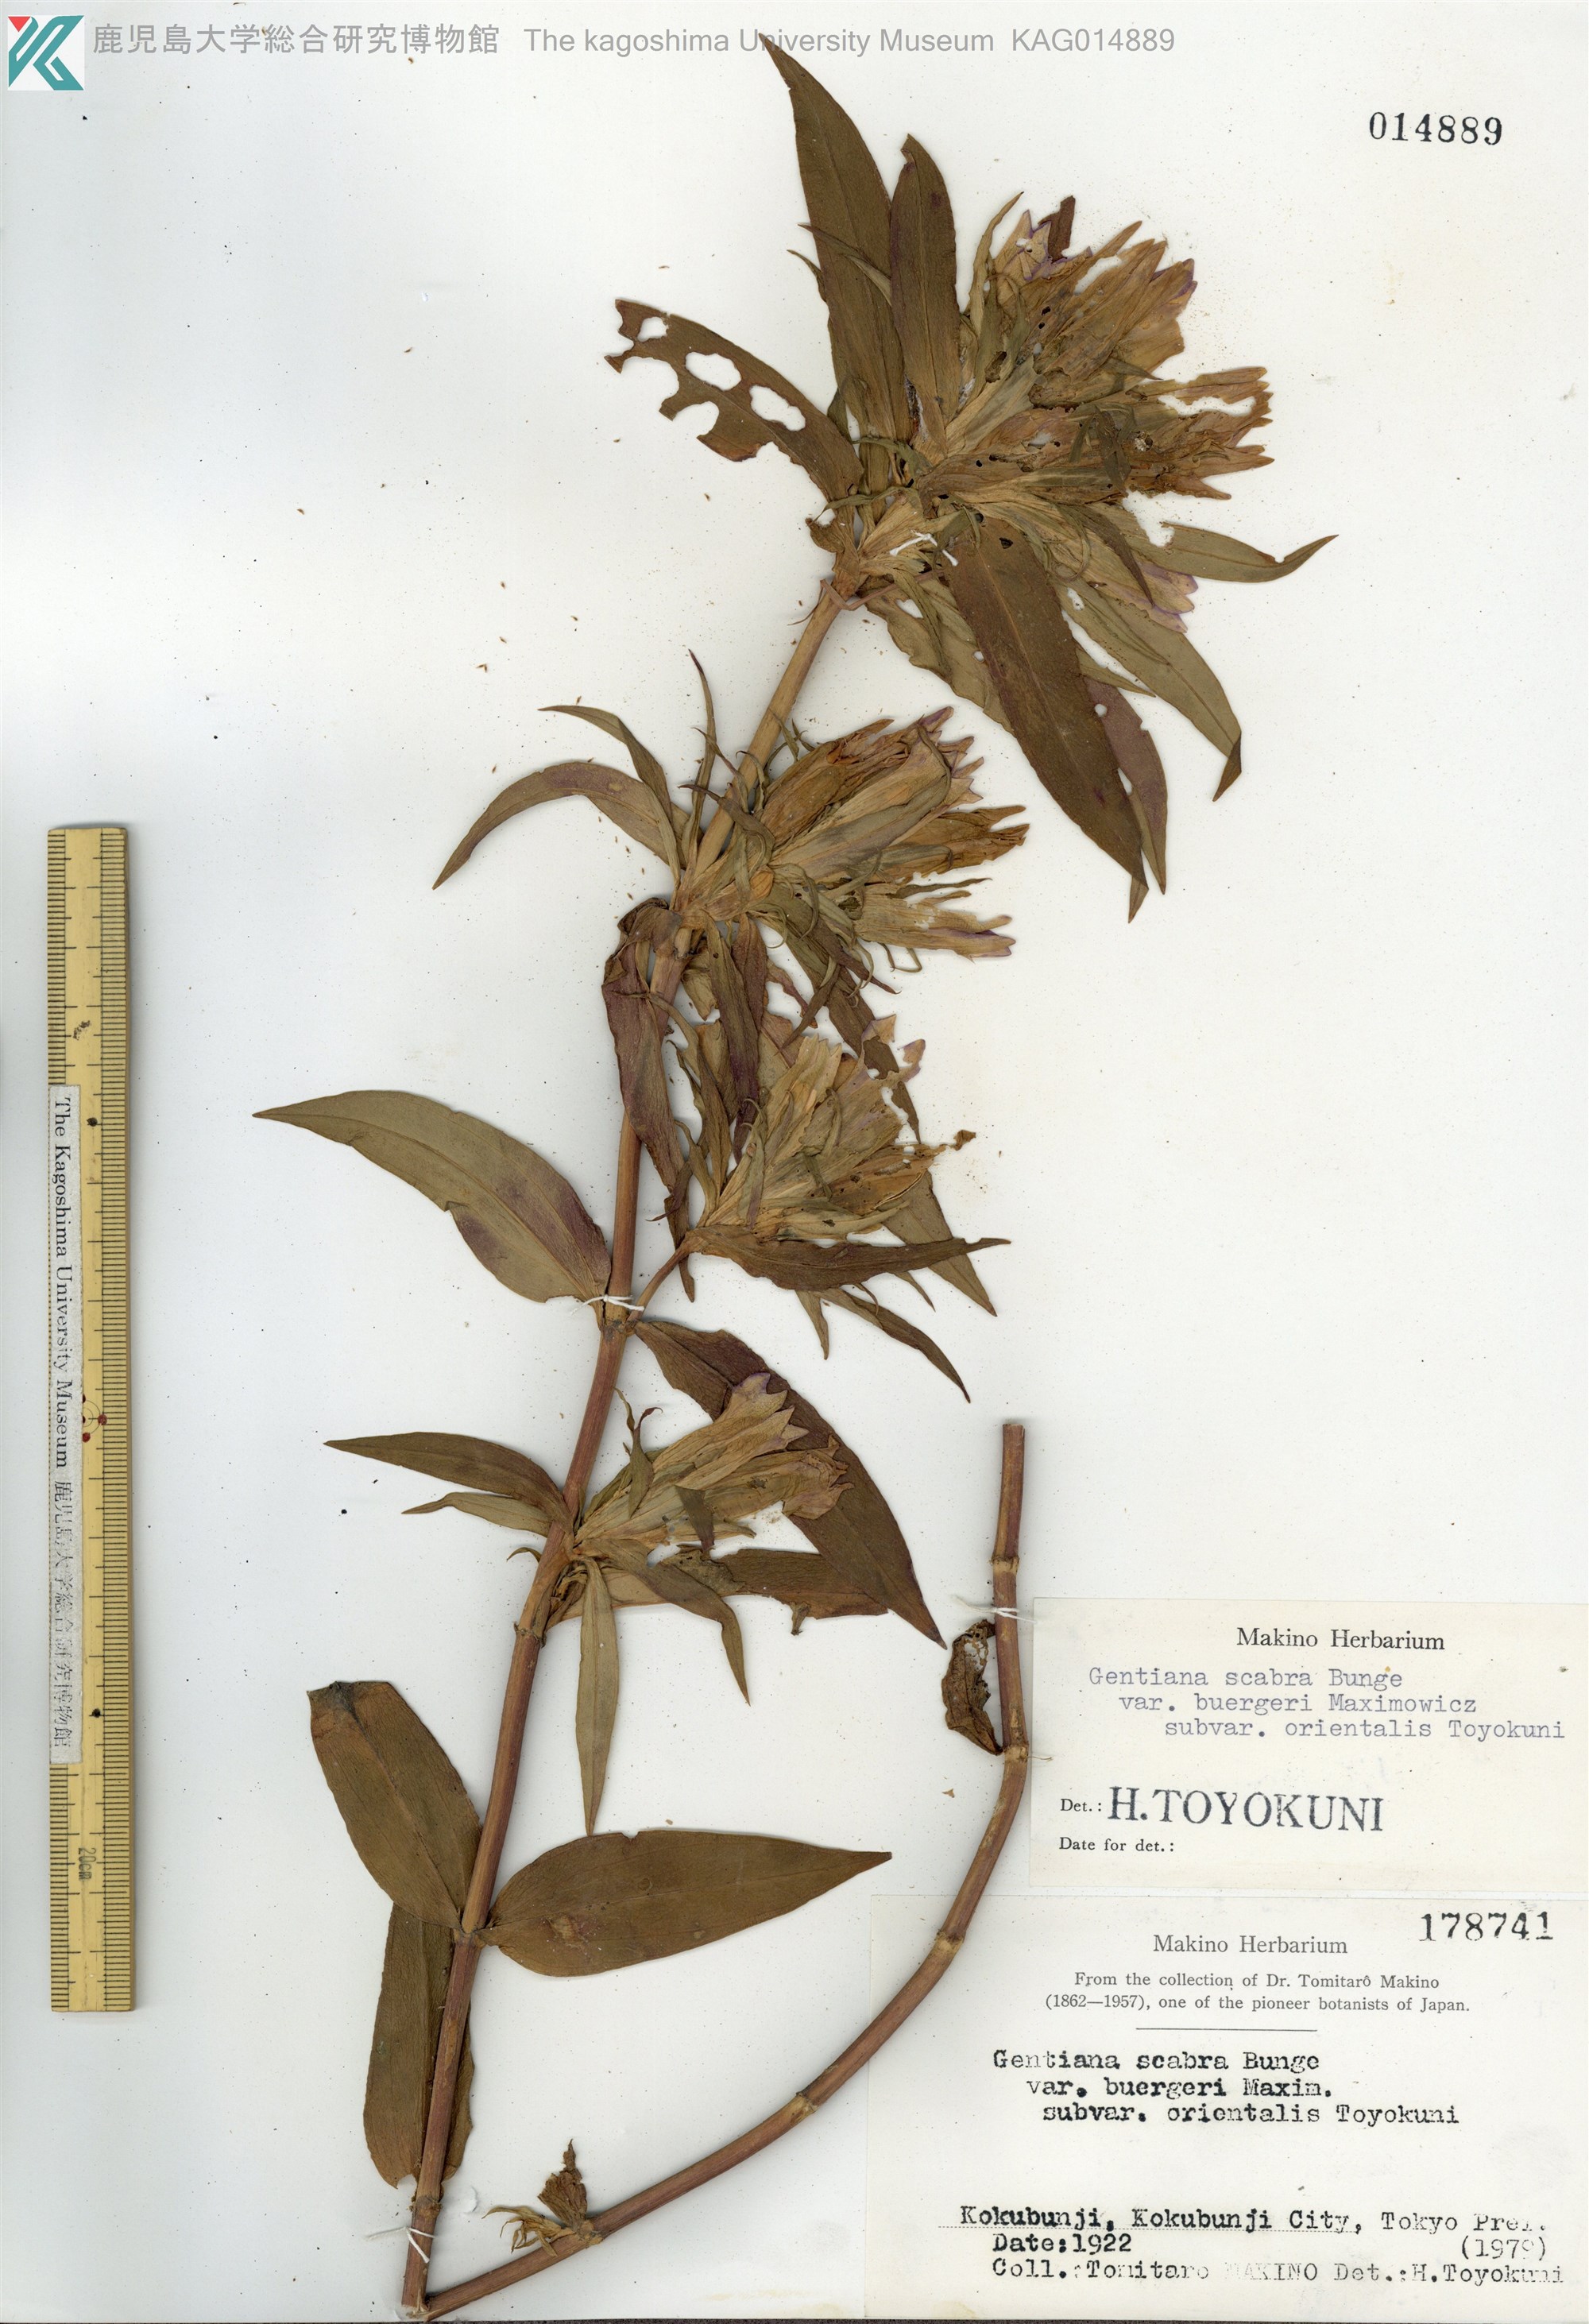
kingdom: Plantae
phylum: Tracheophyta
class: Magnoliopsida
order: Gentianales
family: Gentianaceae
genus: Gentiana
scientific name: Gentiana scabra
